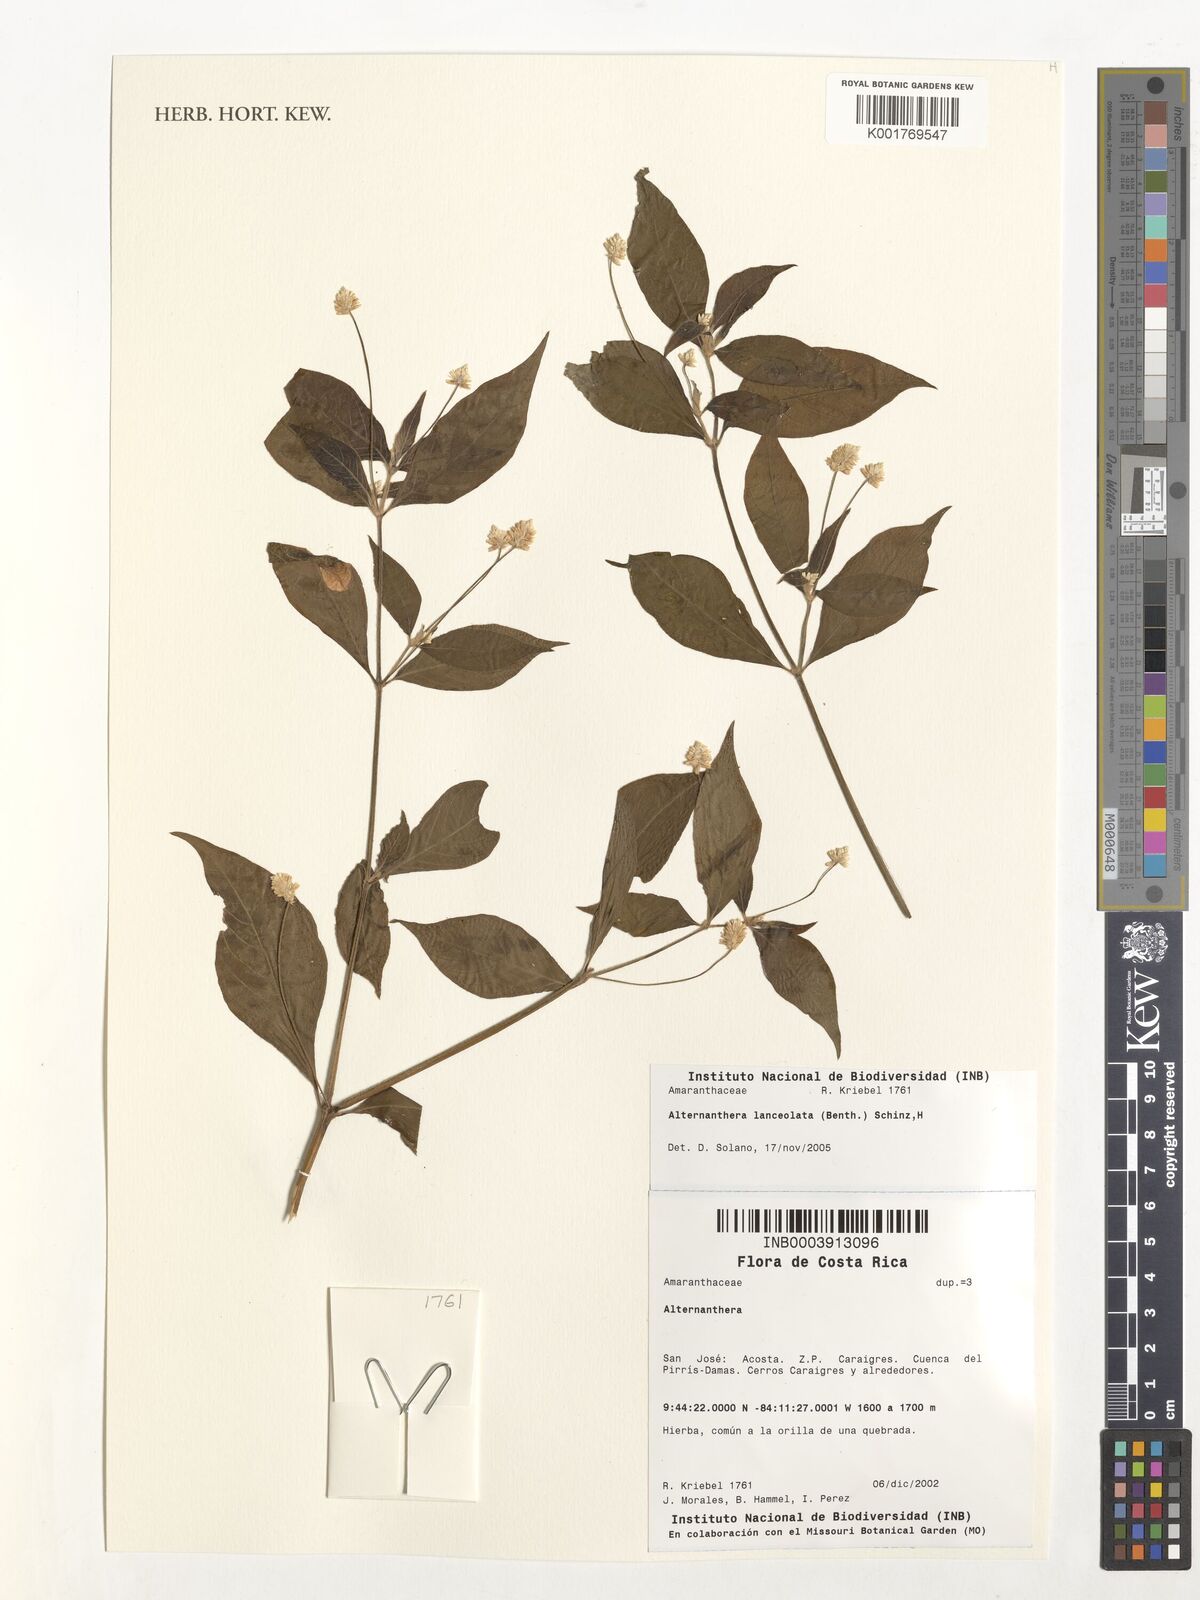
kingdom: Plantae
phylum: Tracheophyta
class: Magnoliopsida
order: Caryophyllales
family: Amaranthaceae
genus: Alternanthera
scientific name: Alternanthera lanceolata
